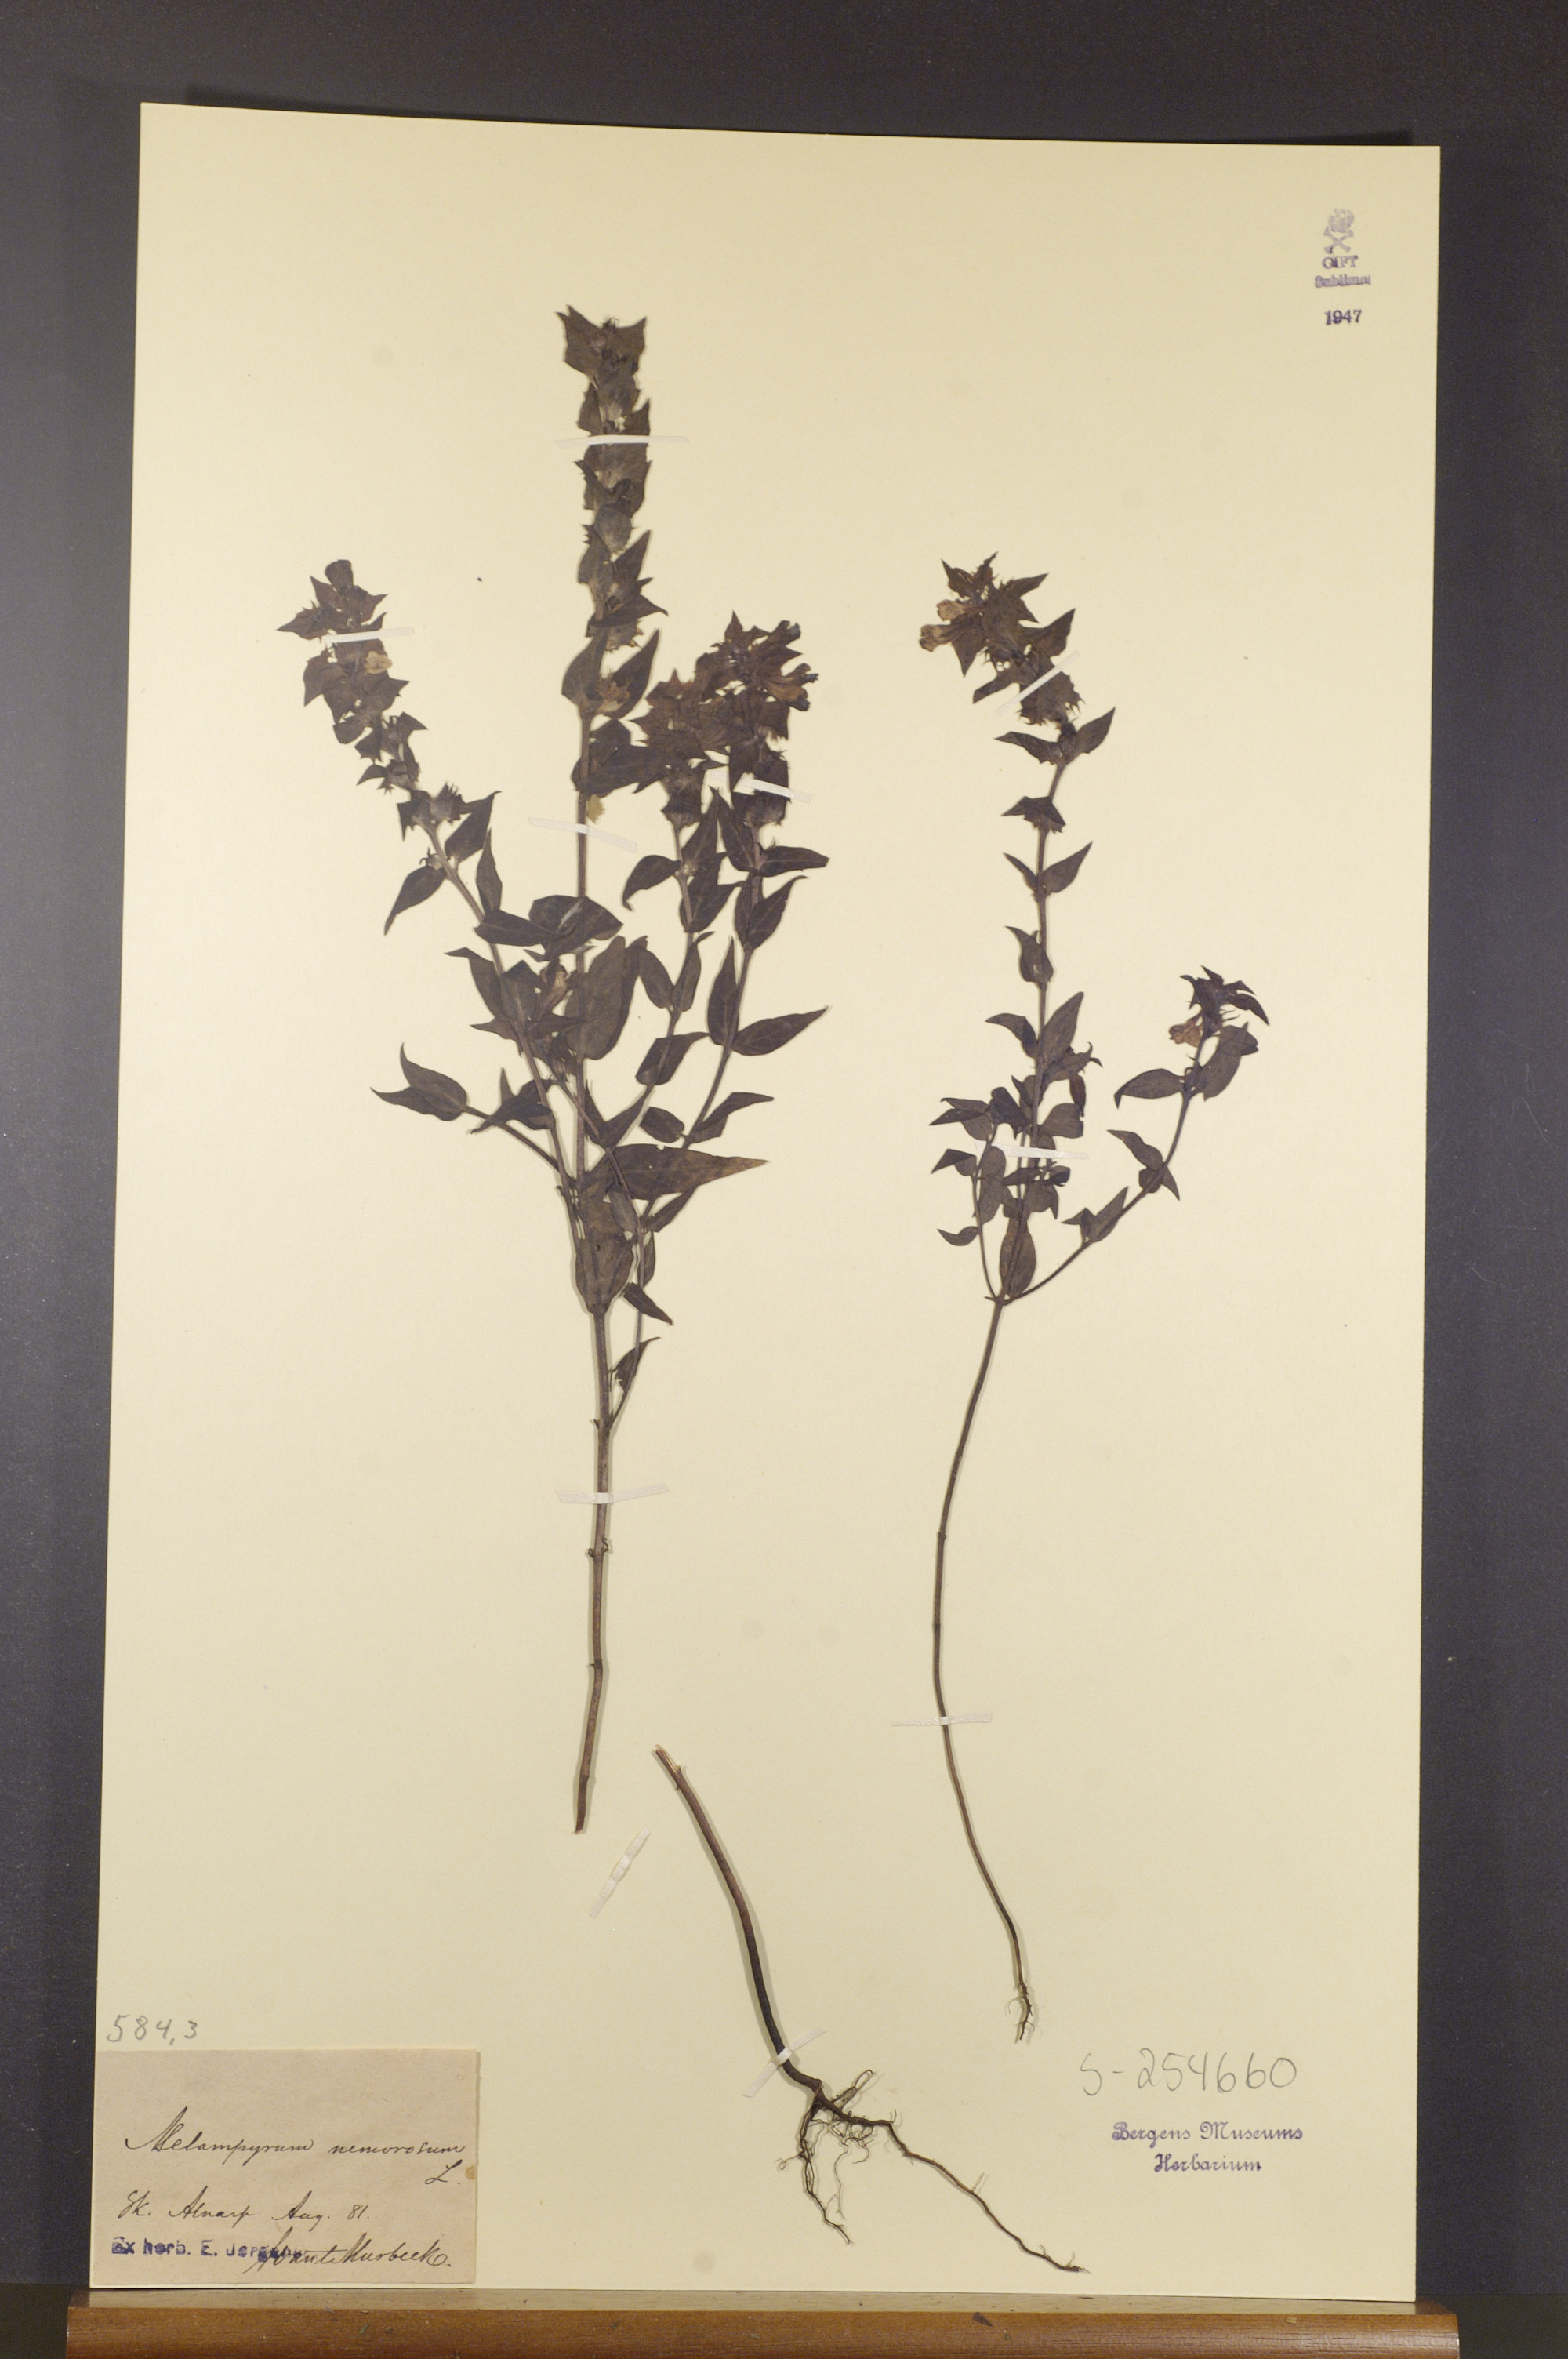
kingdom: Plantae
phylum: Tracheophyta
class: Magnoliopsida
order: Lamiales
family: Orobanchaceae
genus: Melampyrum
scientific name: Melampyrum nemorosum
